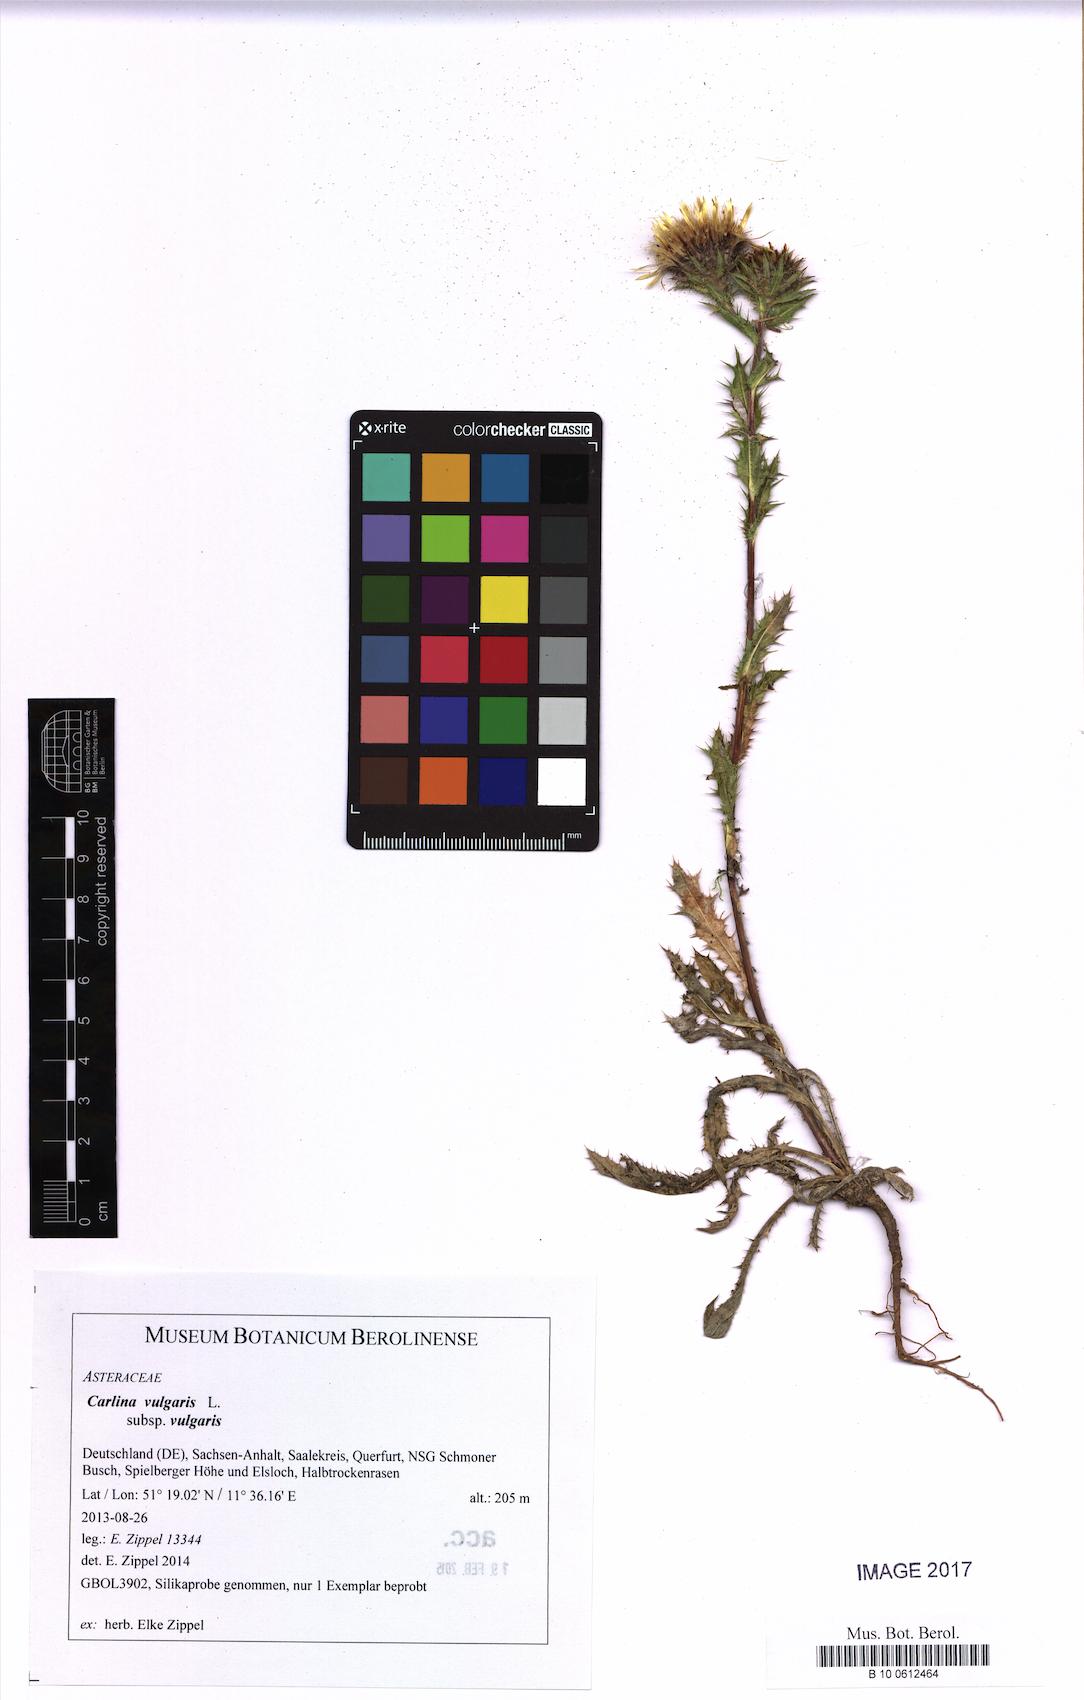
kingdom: Plantae
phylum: Tracheophyta
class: Magnoliopsida
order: Asterales
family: Asteraceae
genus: Carlina
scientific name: Carlina vulgaris
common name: Carline thistle
